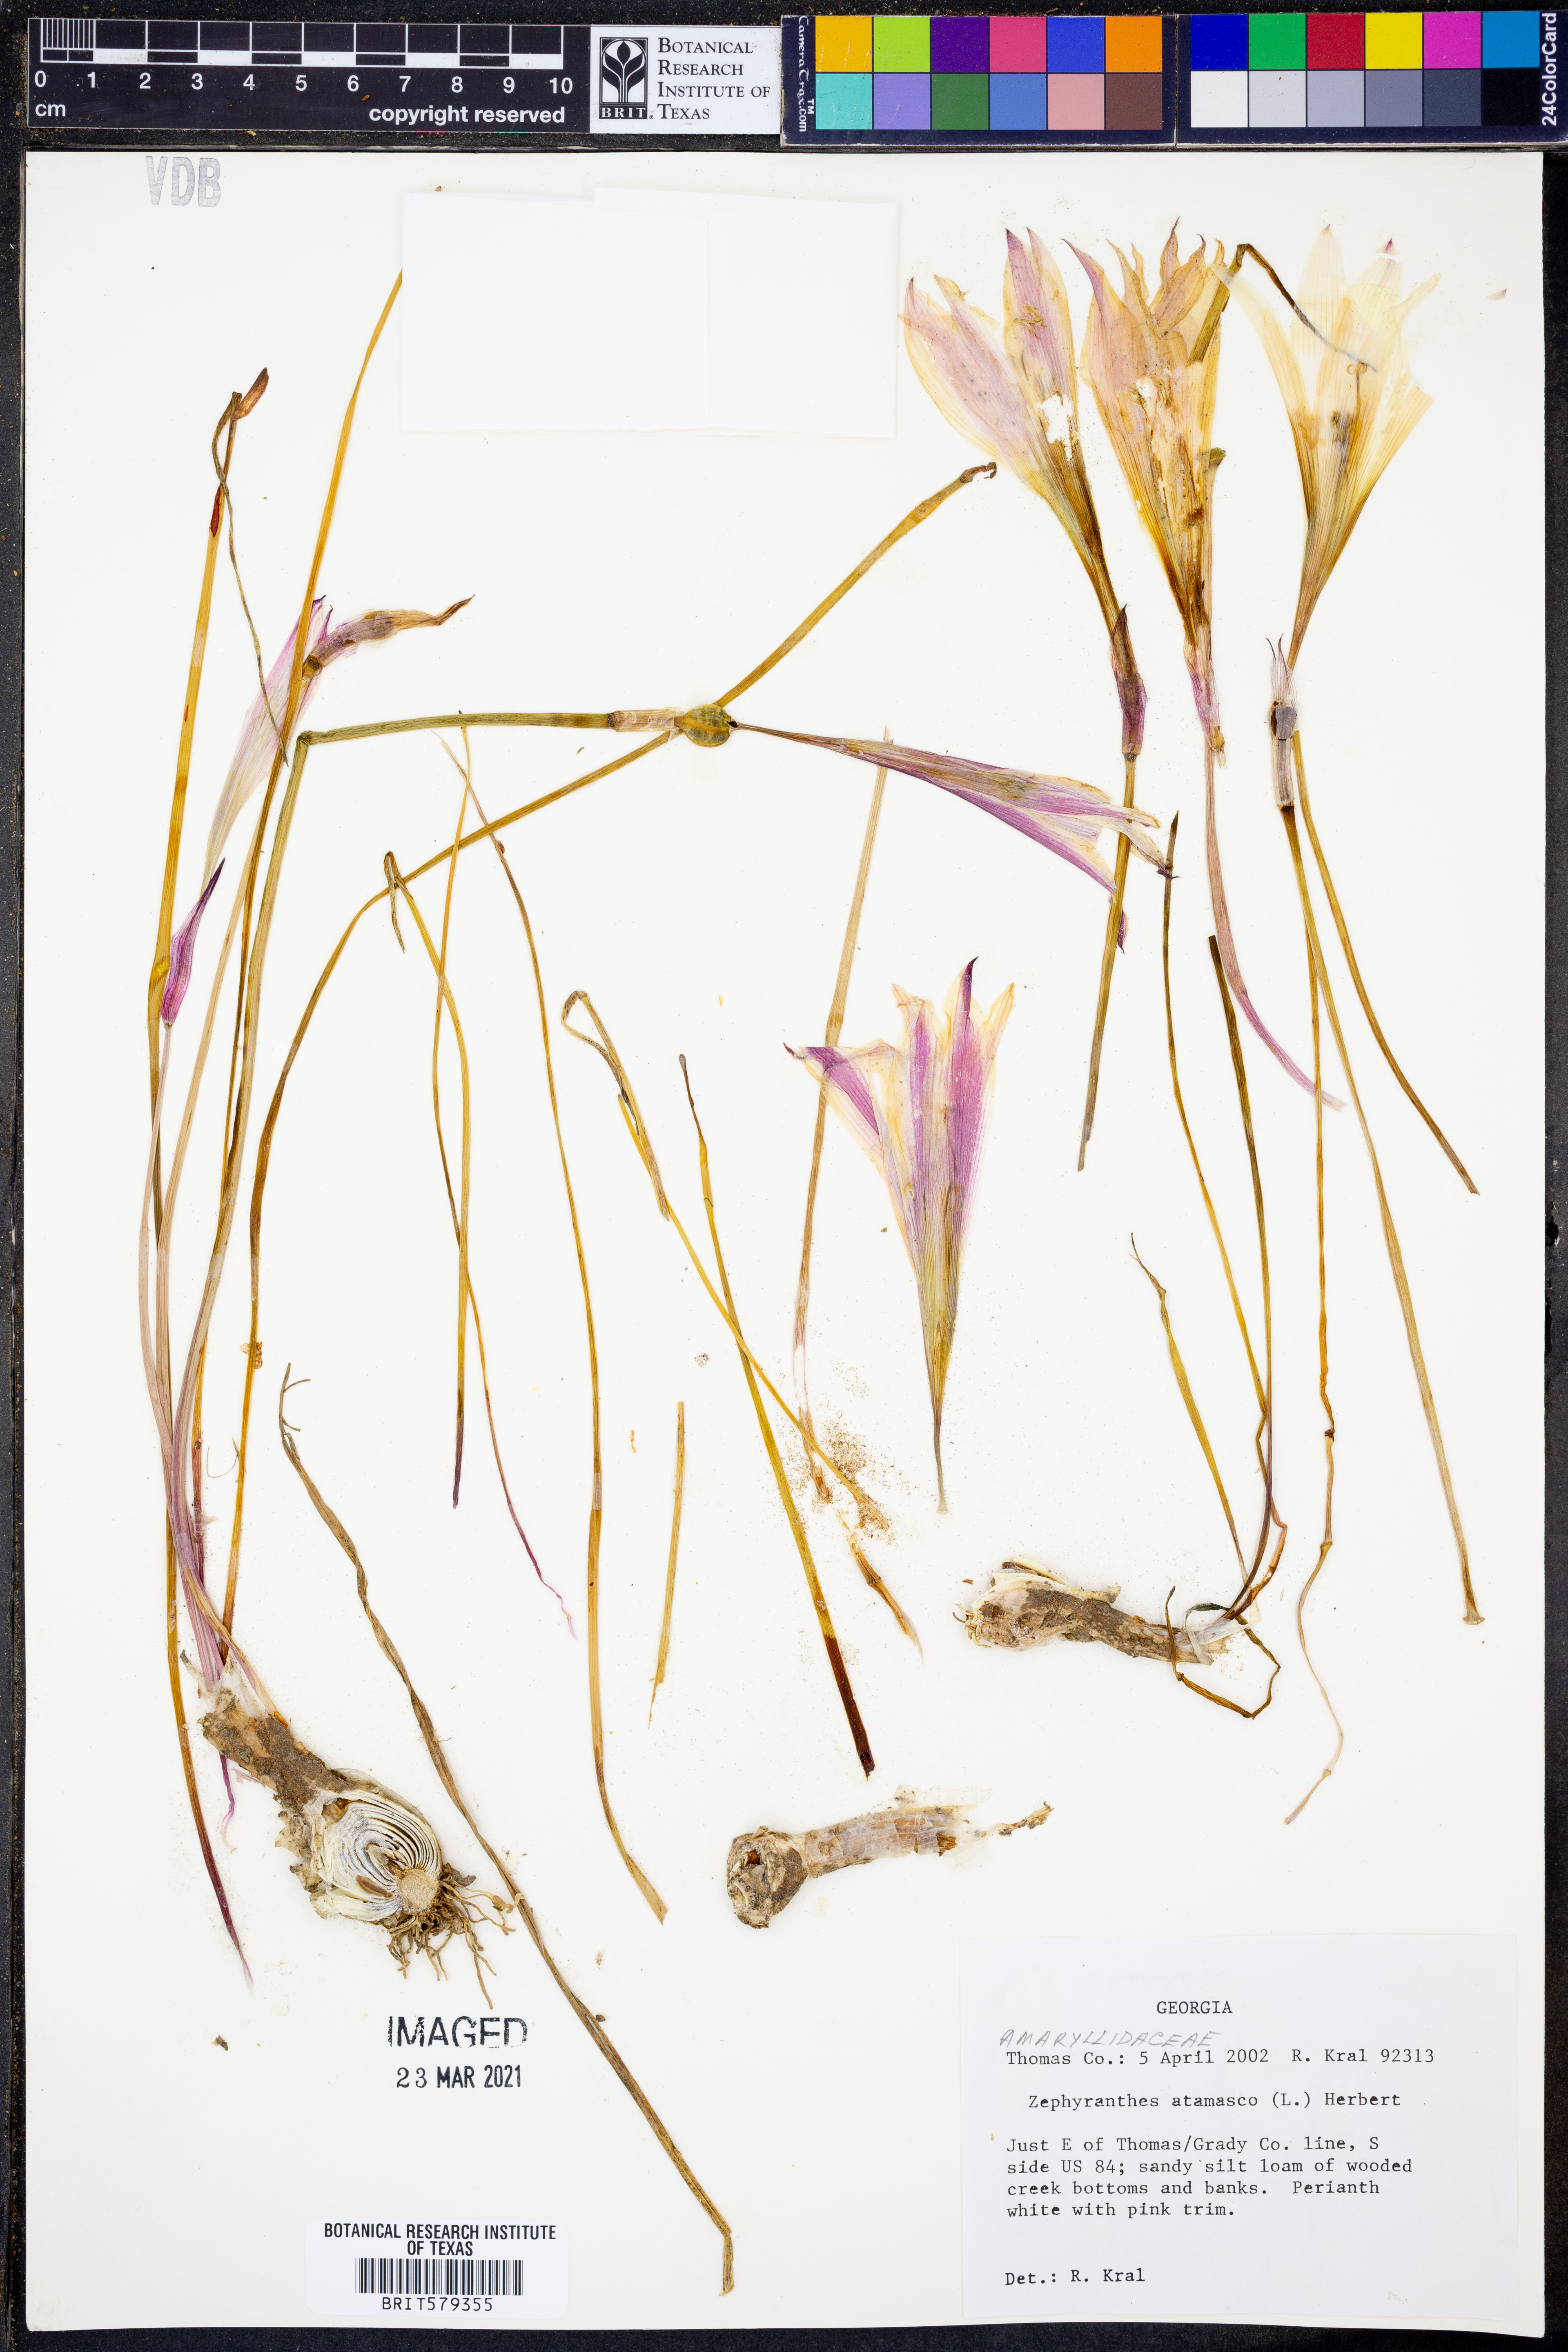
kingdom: Plantae
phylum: Tracheophyta
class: Liliopsida
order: Asparagales
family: Amaryllidaceae
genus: Zephyranthes
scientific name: Zephyranthes atamasco
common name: Atamasco lily
